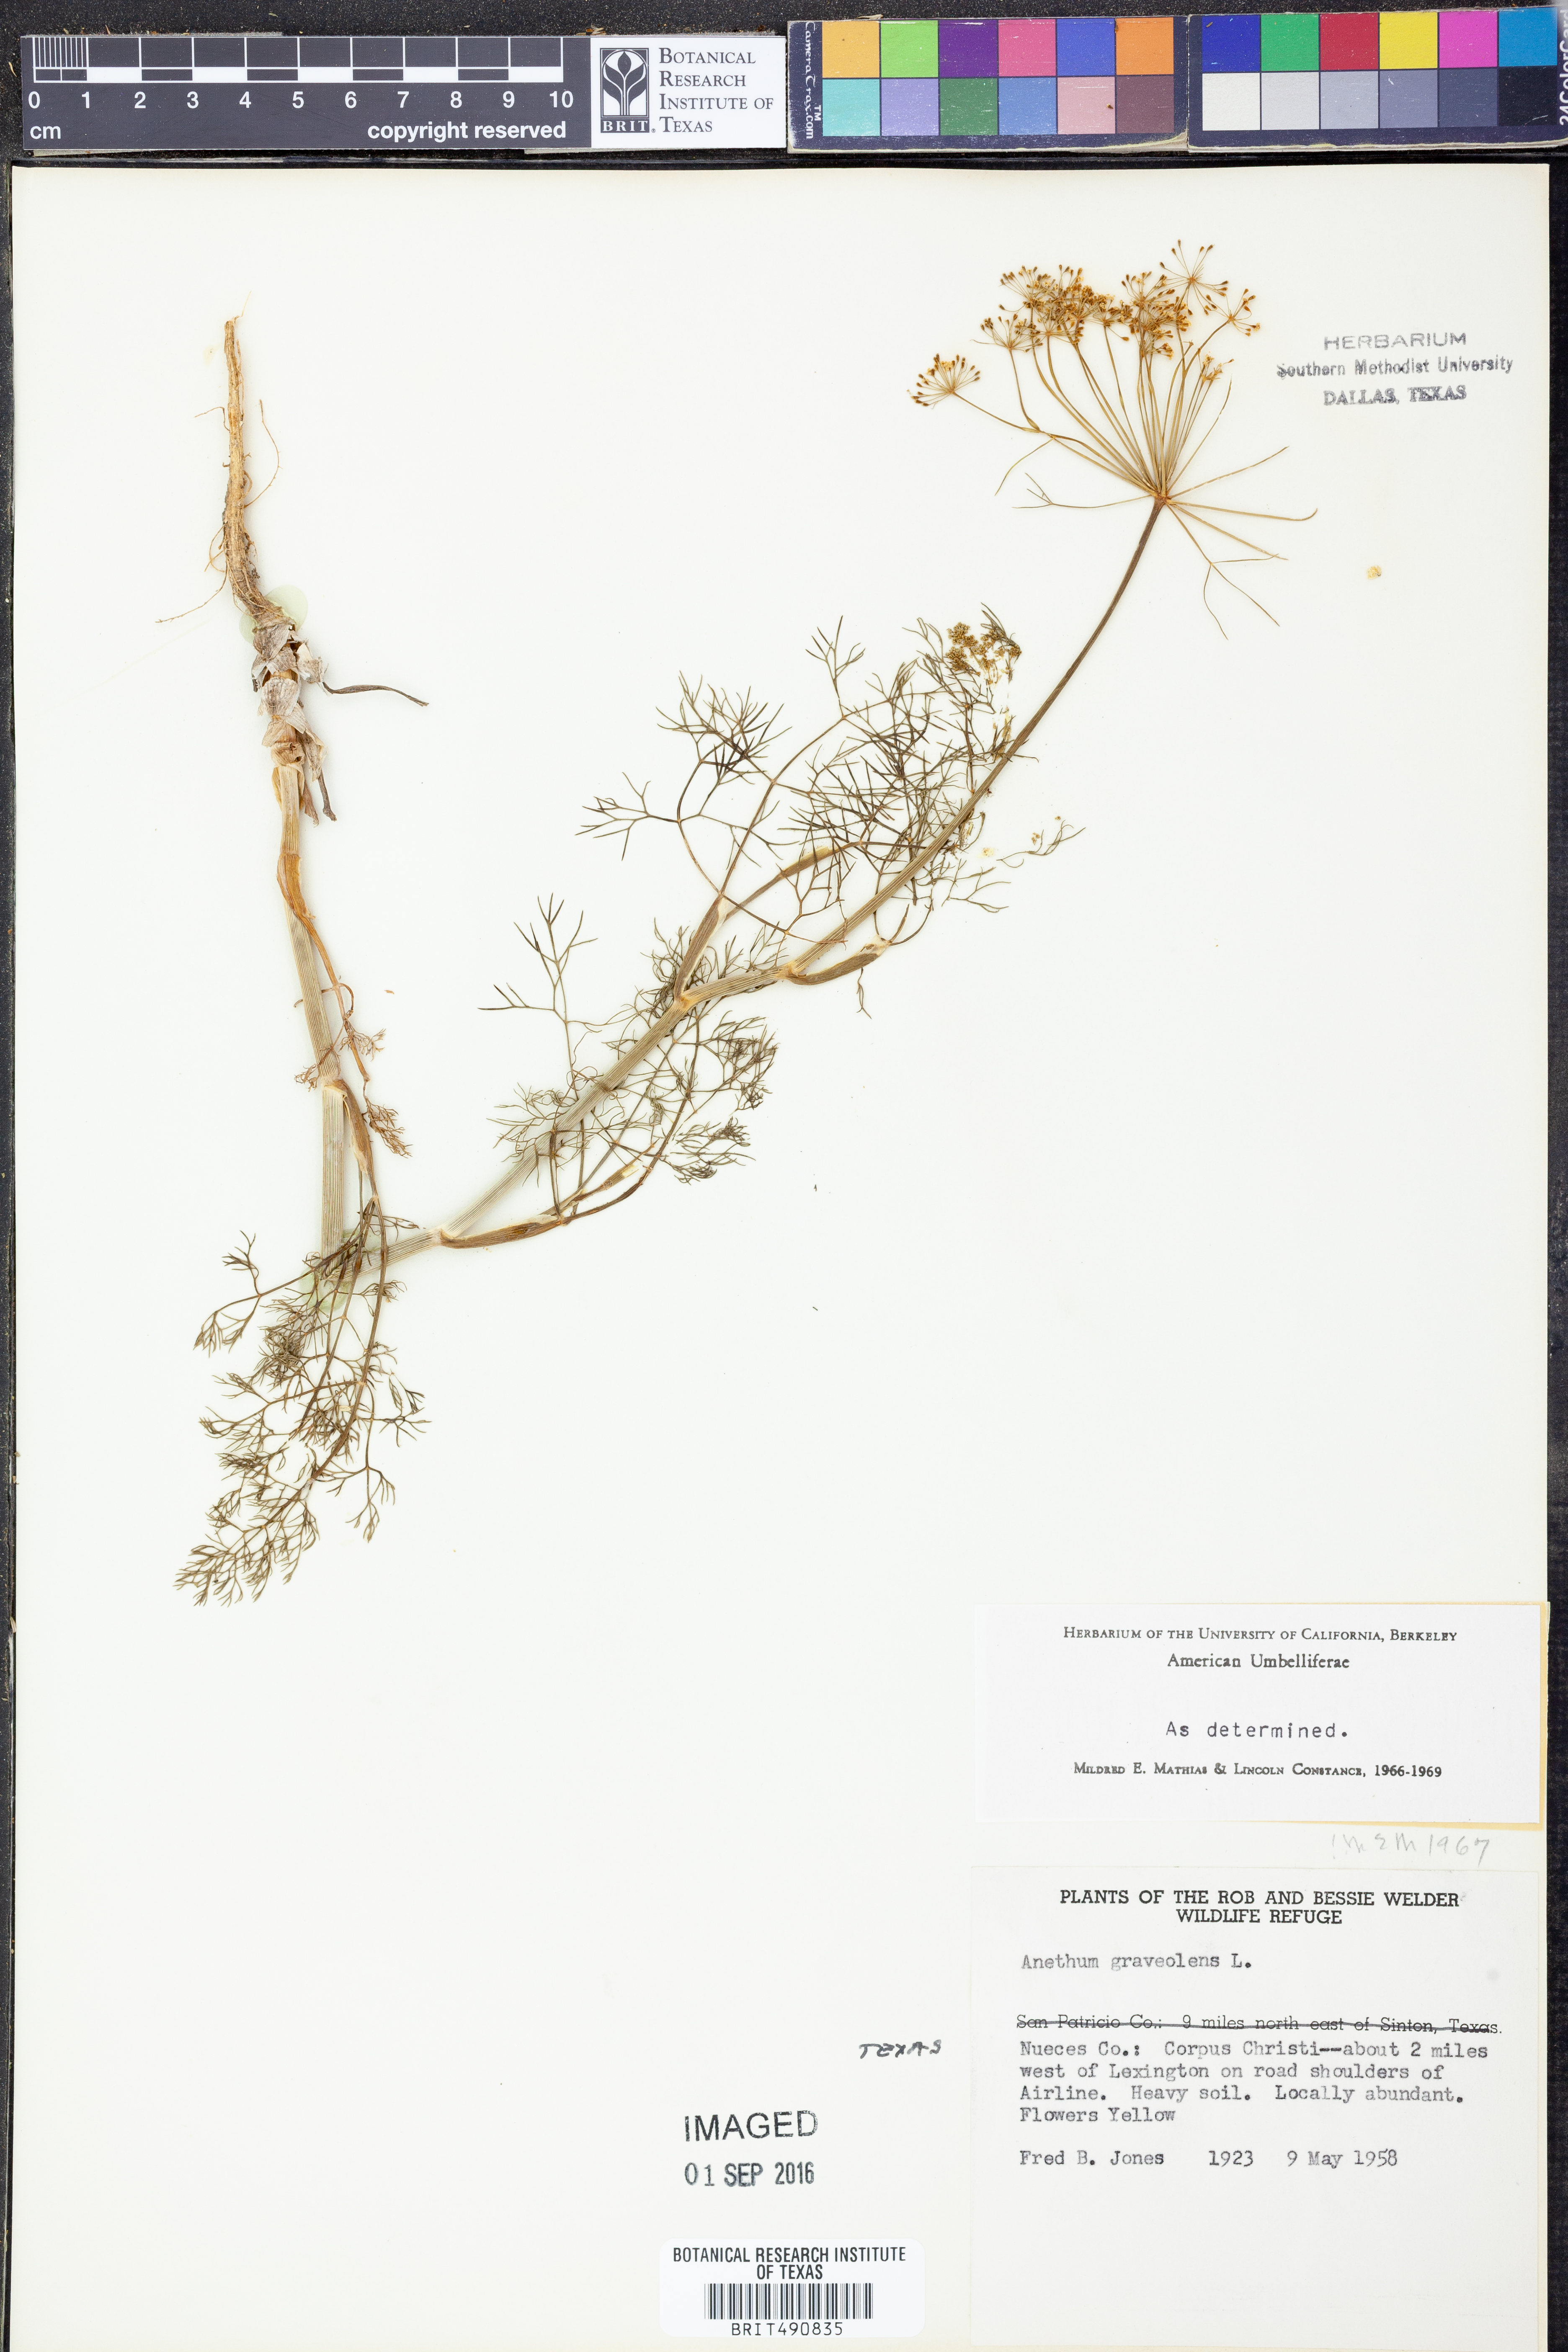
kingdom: Plantae
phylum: Tracheophyta
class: Magnoliopsida
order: Apiales
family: Apiaceae
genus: Anethum
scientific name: Anethum graveolens
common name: Dill
